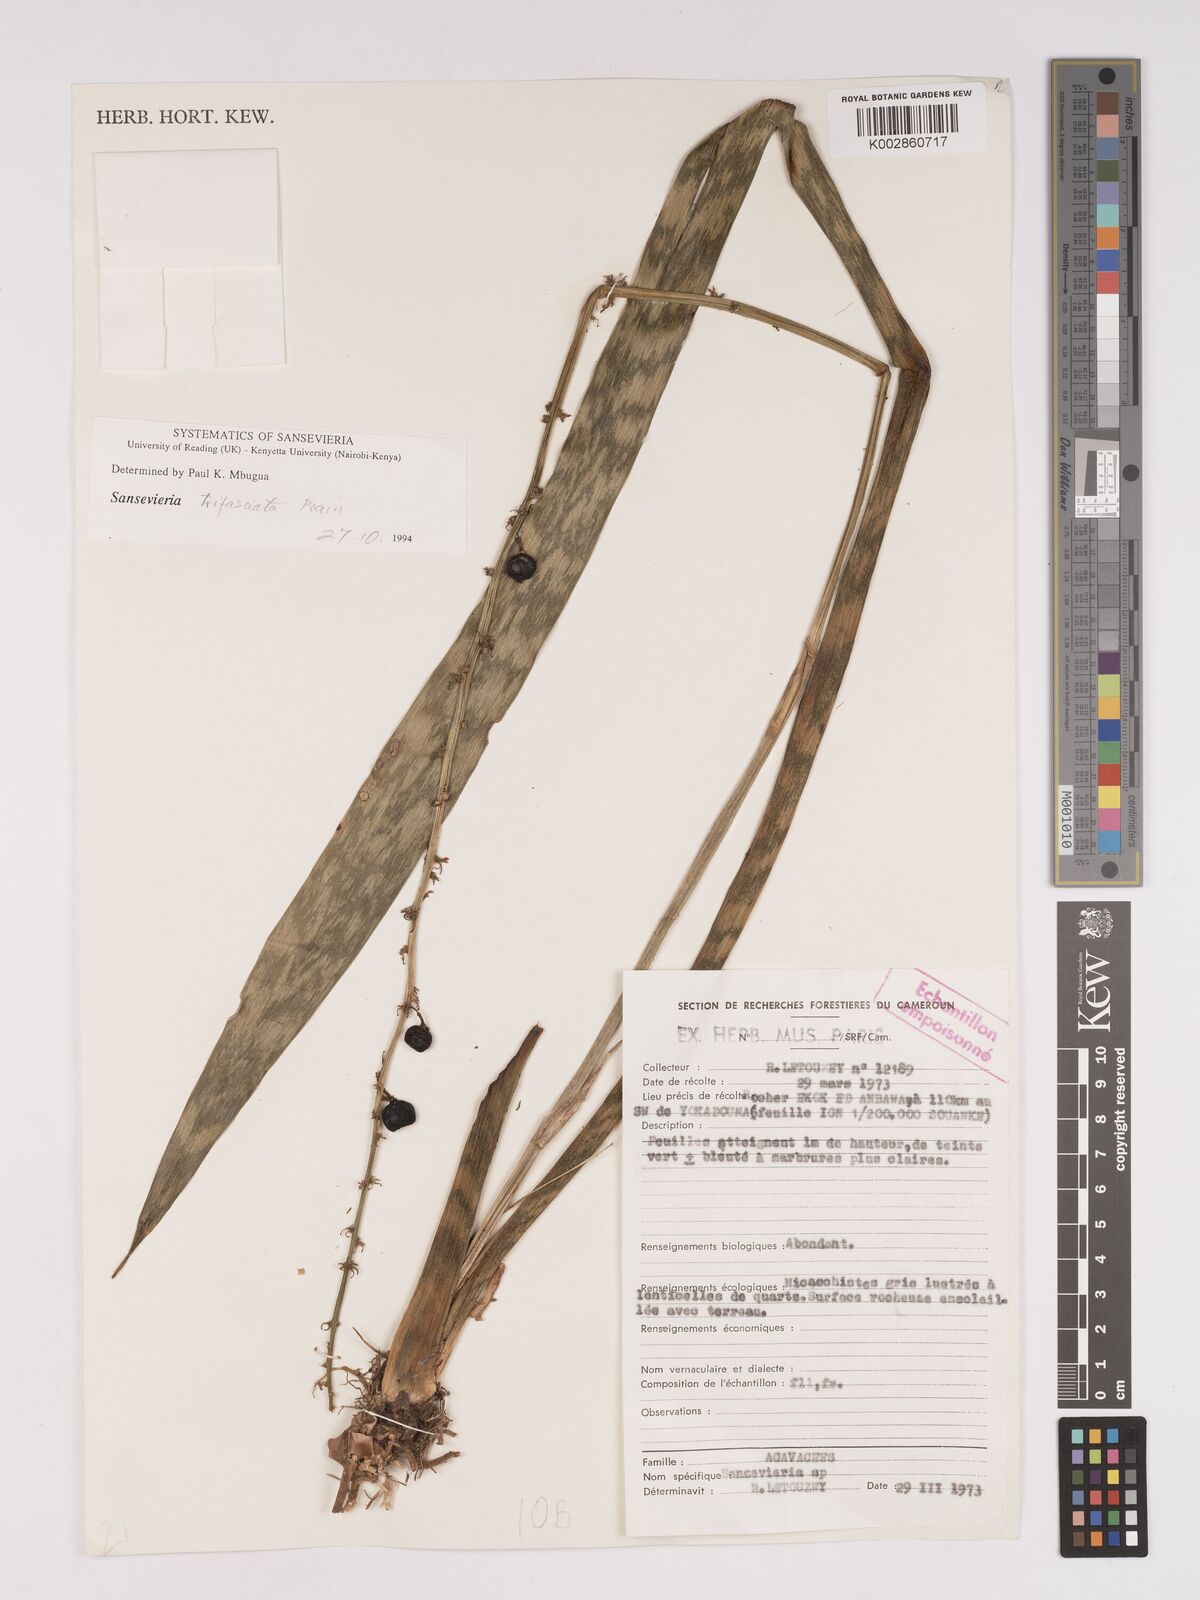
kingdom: Plantae
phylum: Tracheophyta
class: Liliopsida
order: Asparagales
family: Asparagaceae
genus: Dracaena
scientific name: Dracaena
